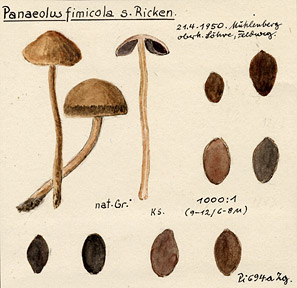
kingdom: Fungi
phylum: Basidiomycota
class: Agaricomycetes
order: Agaricales
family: Bolbitiaceae
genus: Panaeolus
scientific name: Panaeolus fimicola
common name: Turf mottlegill
